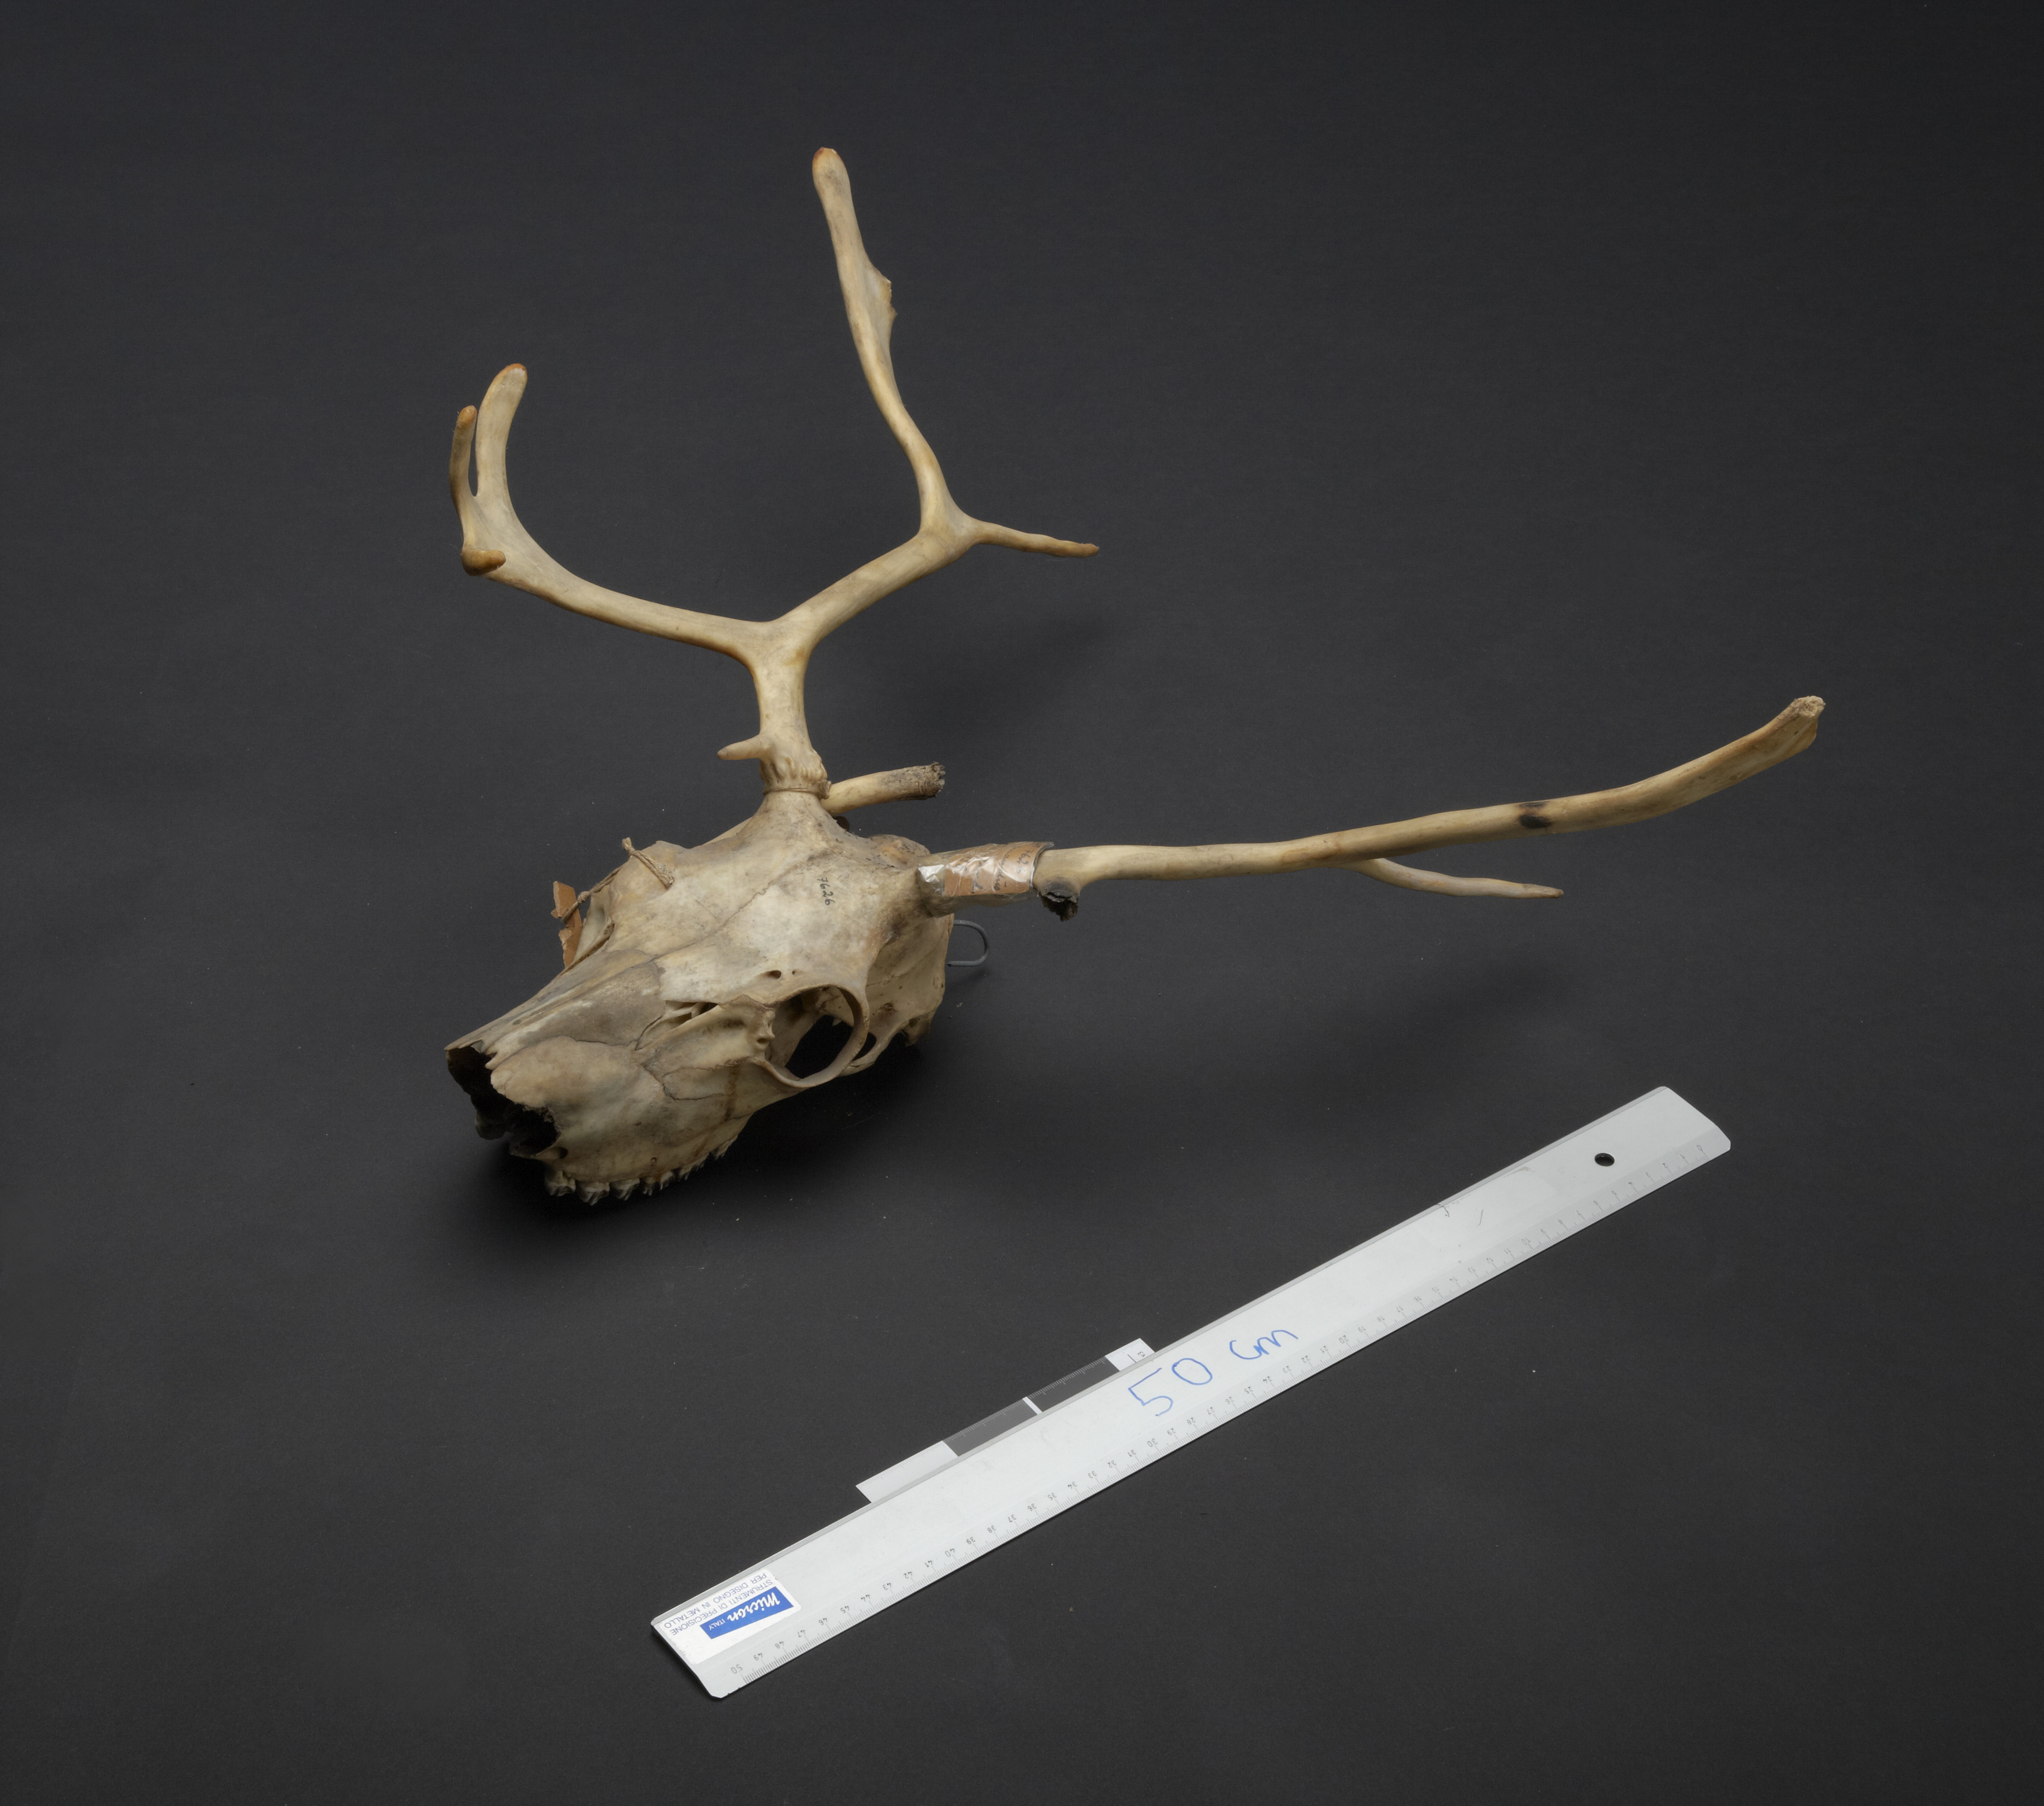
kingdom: Animalia
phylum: Chordata
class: Mammalia
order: Artiodactyla
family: Cervidae
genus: Rangifer
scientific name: Rangifer tarandus
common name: Reindeer
